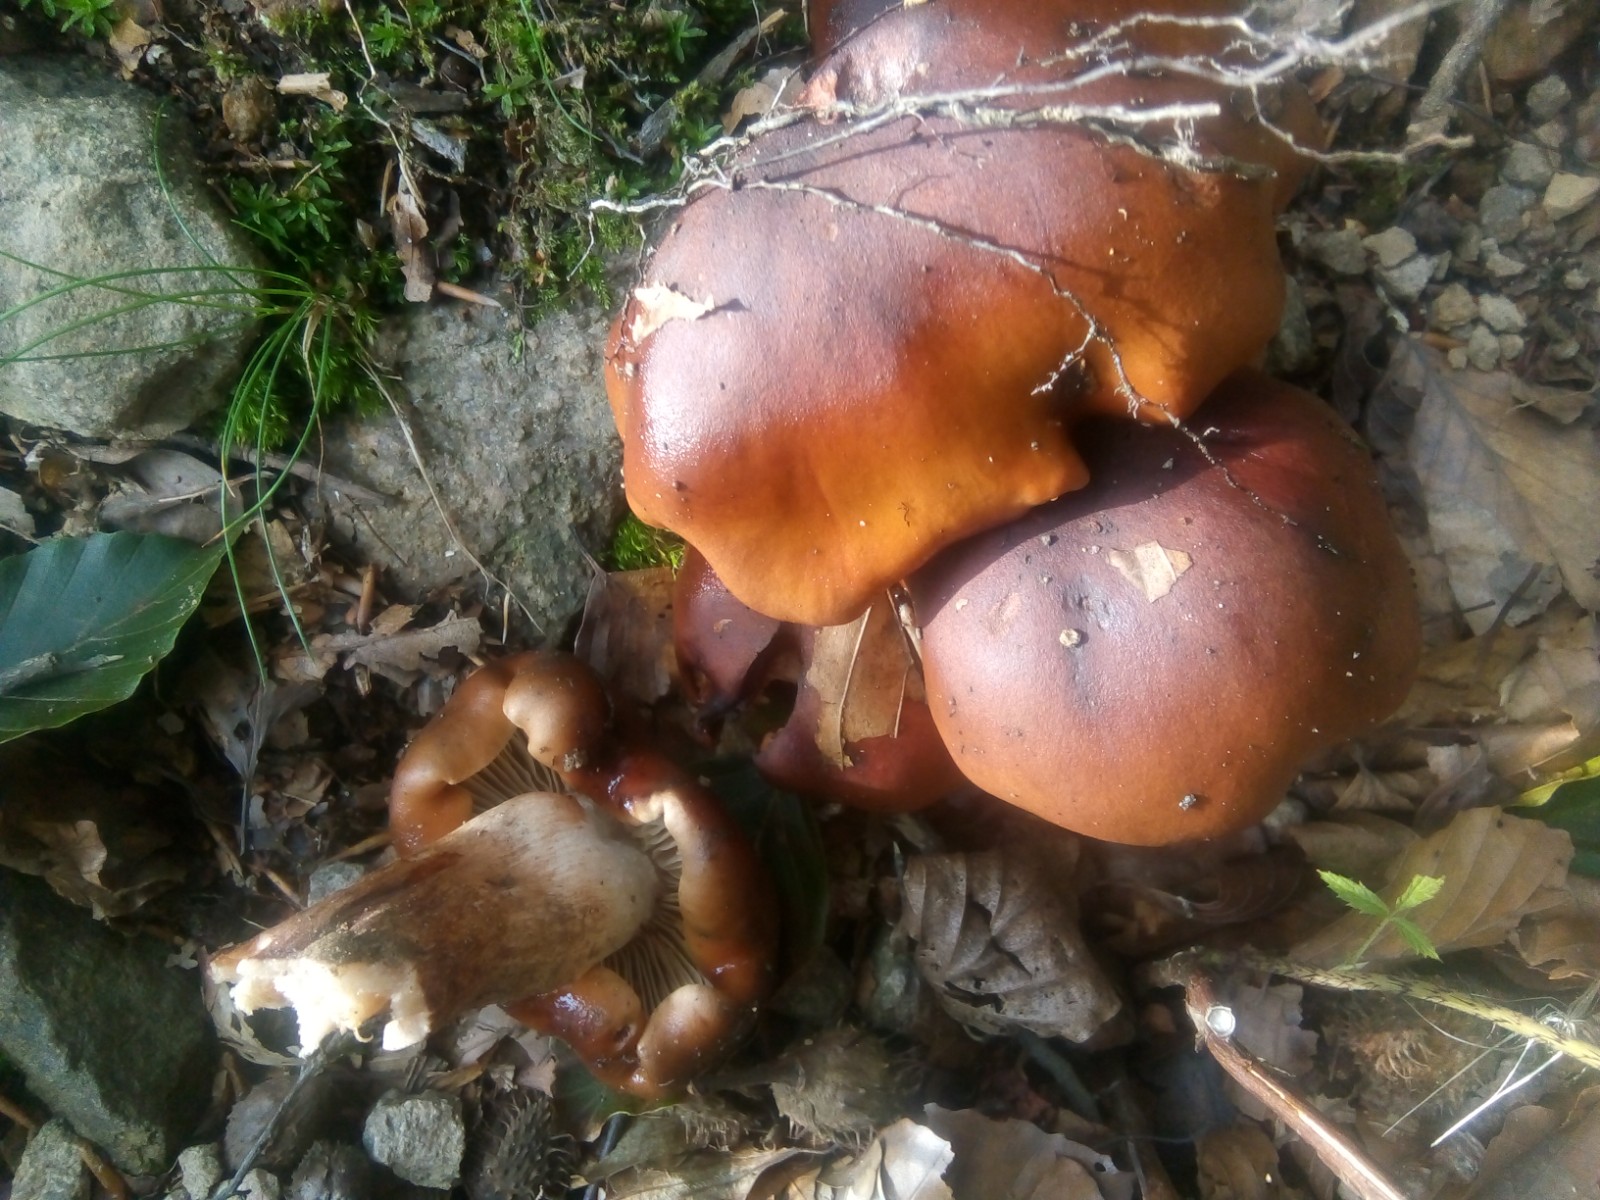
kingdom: Fungi
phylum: Basidiomycota
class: Agaricomycetes
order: Agaricales
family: Tricholomataceae
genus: Tricholoma
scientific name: Tricholoma ustale
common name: sveden ridderhat
